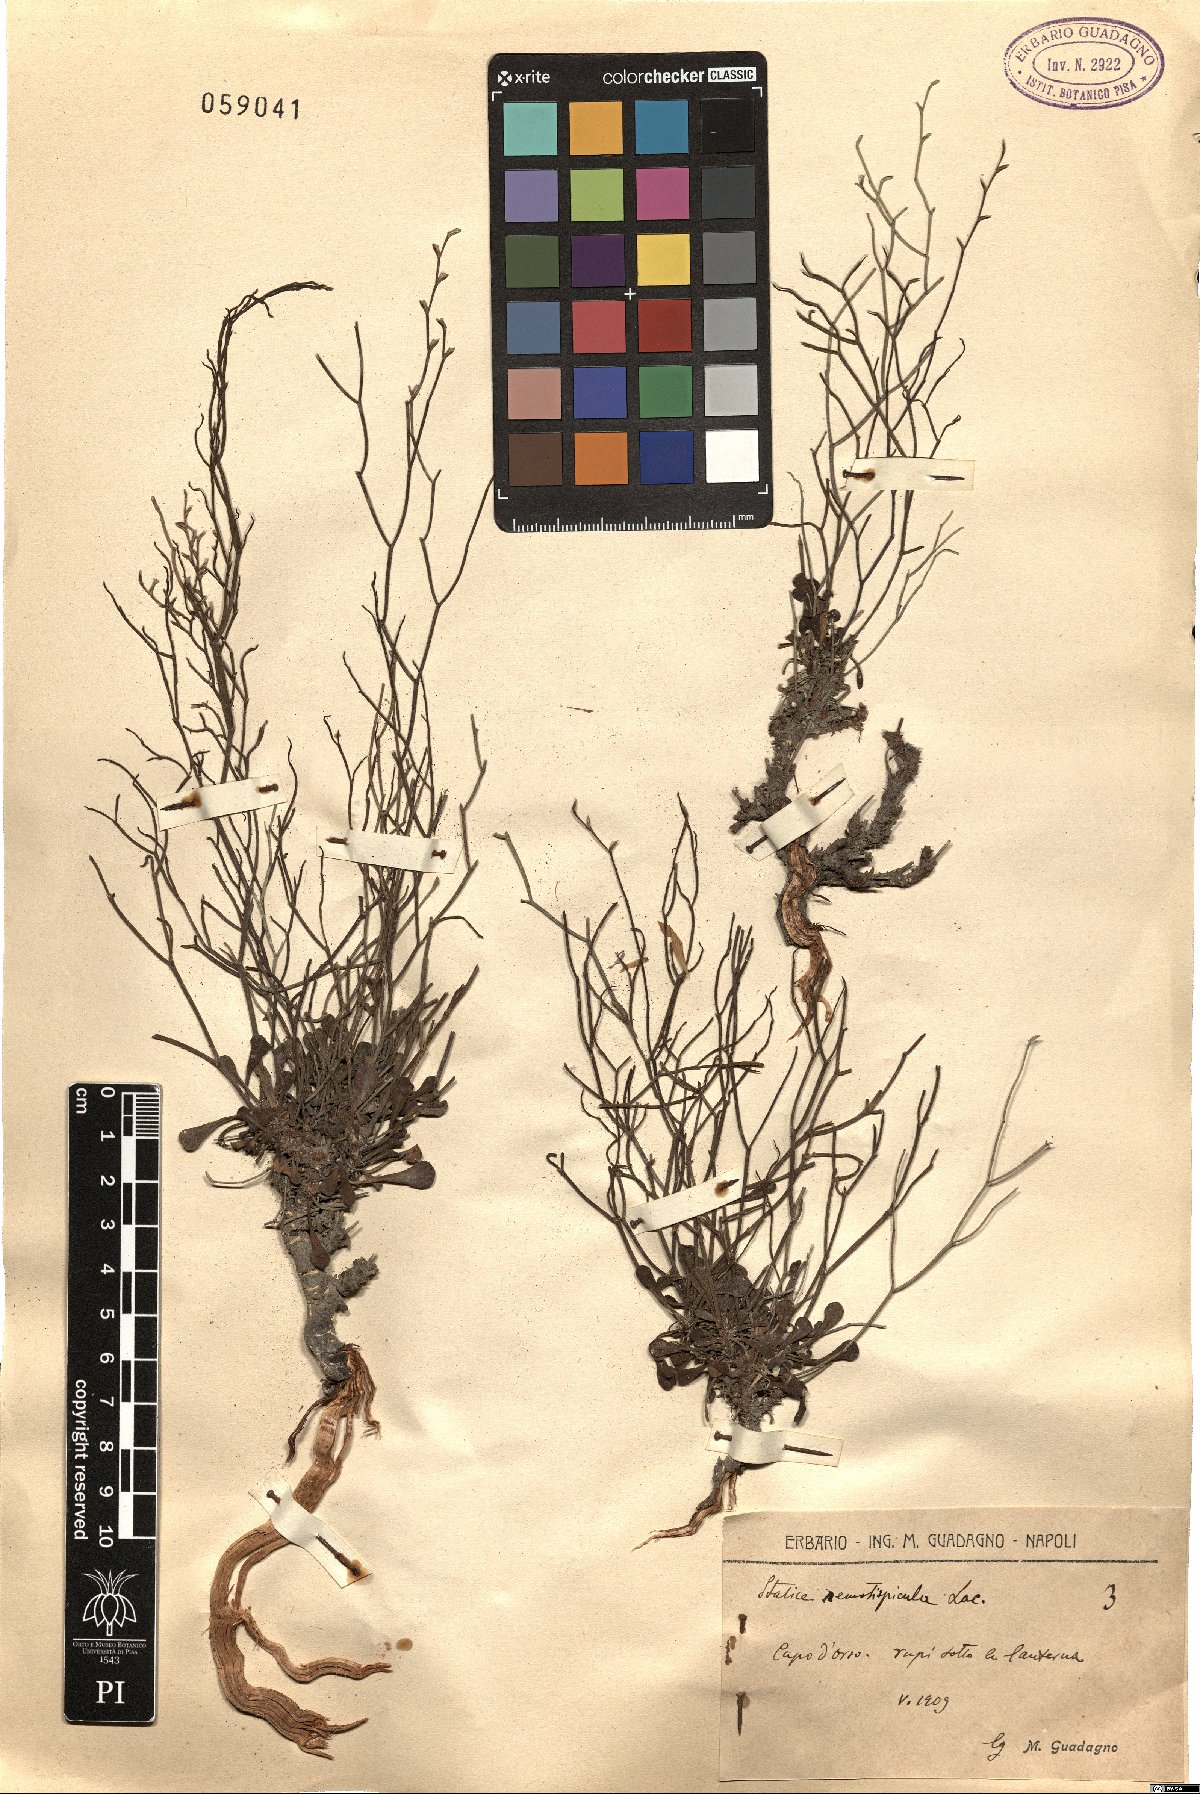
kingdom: Plantae
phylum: Tracheophyta
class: Magnoliopsida
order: Caryophyllales
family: Plumbaginaceae
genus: Limonium
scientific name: Limonium remotispiculum
